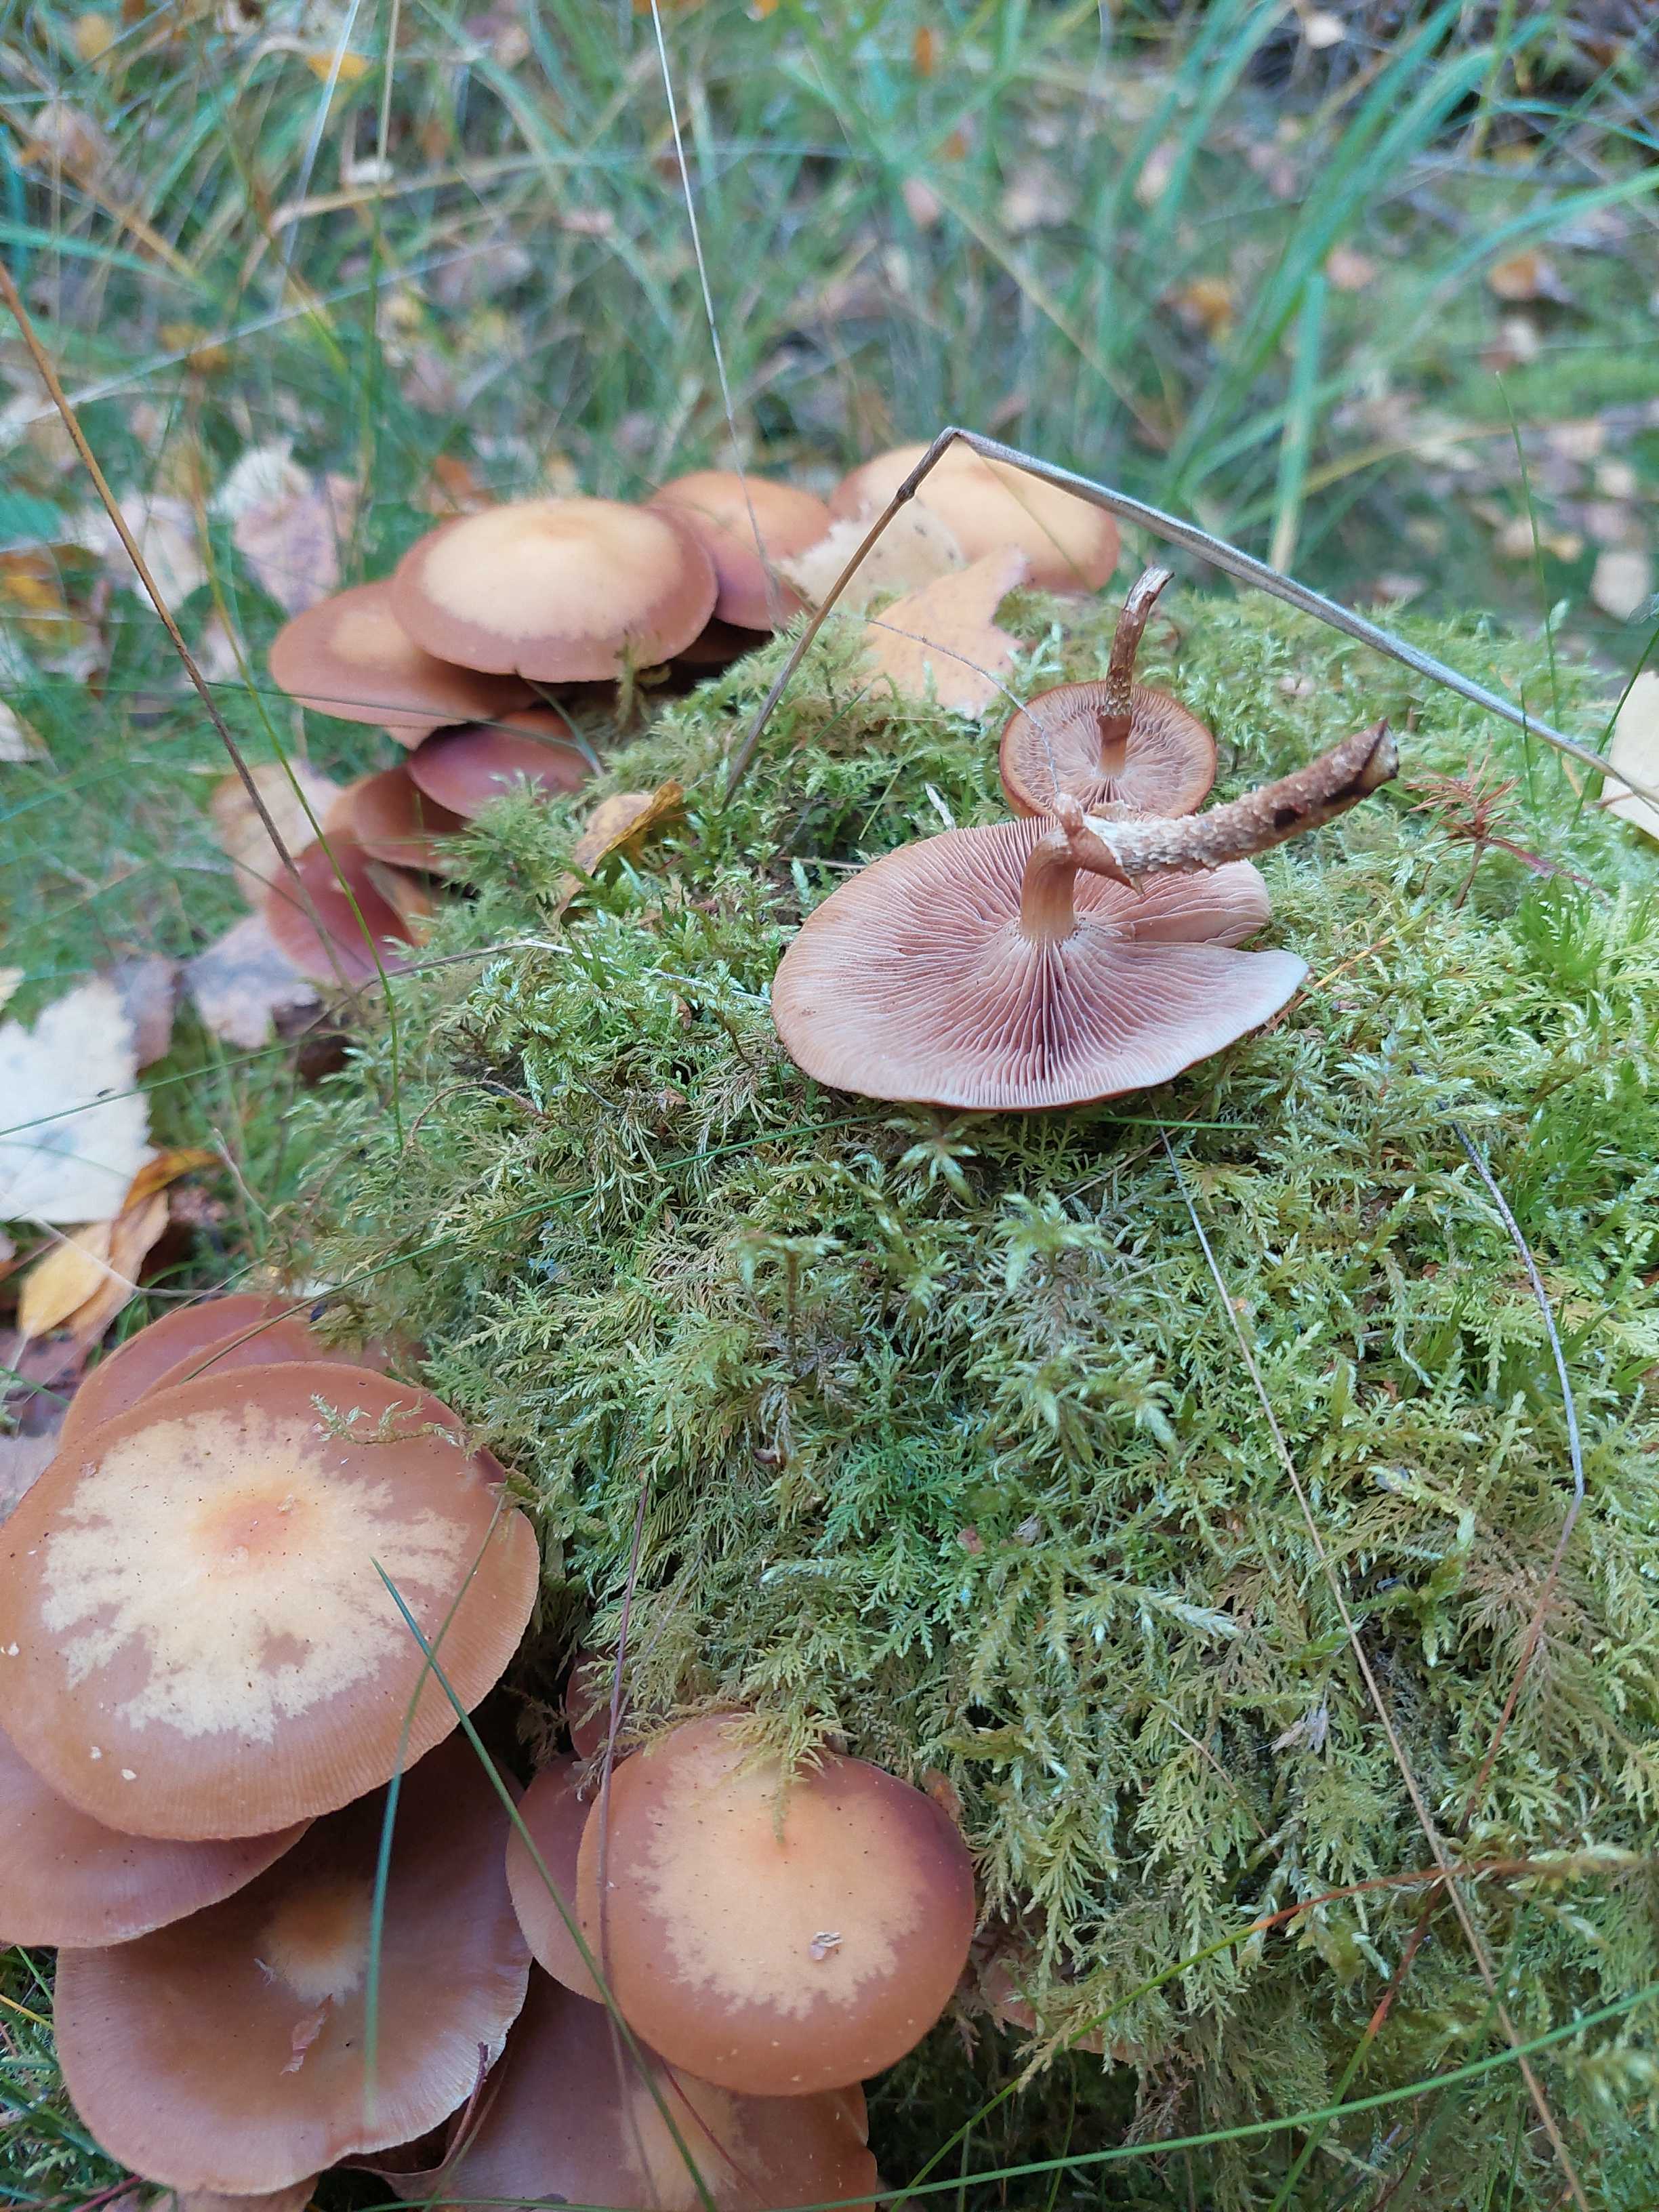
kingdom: Fungi
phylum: Basidiomycota
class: Agaricomycetes
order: Agaricales
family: Strophariaceae
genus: Kuehneromyces
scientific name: Kuehneromyces mutabilis
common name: foranderlig skælhat
